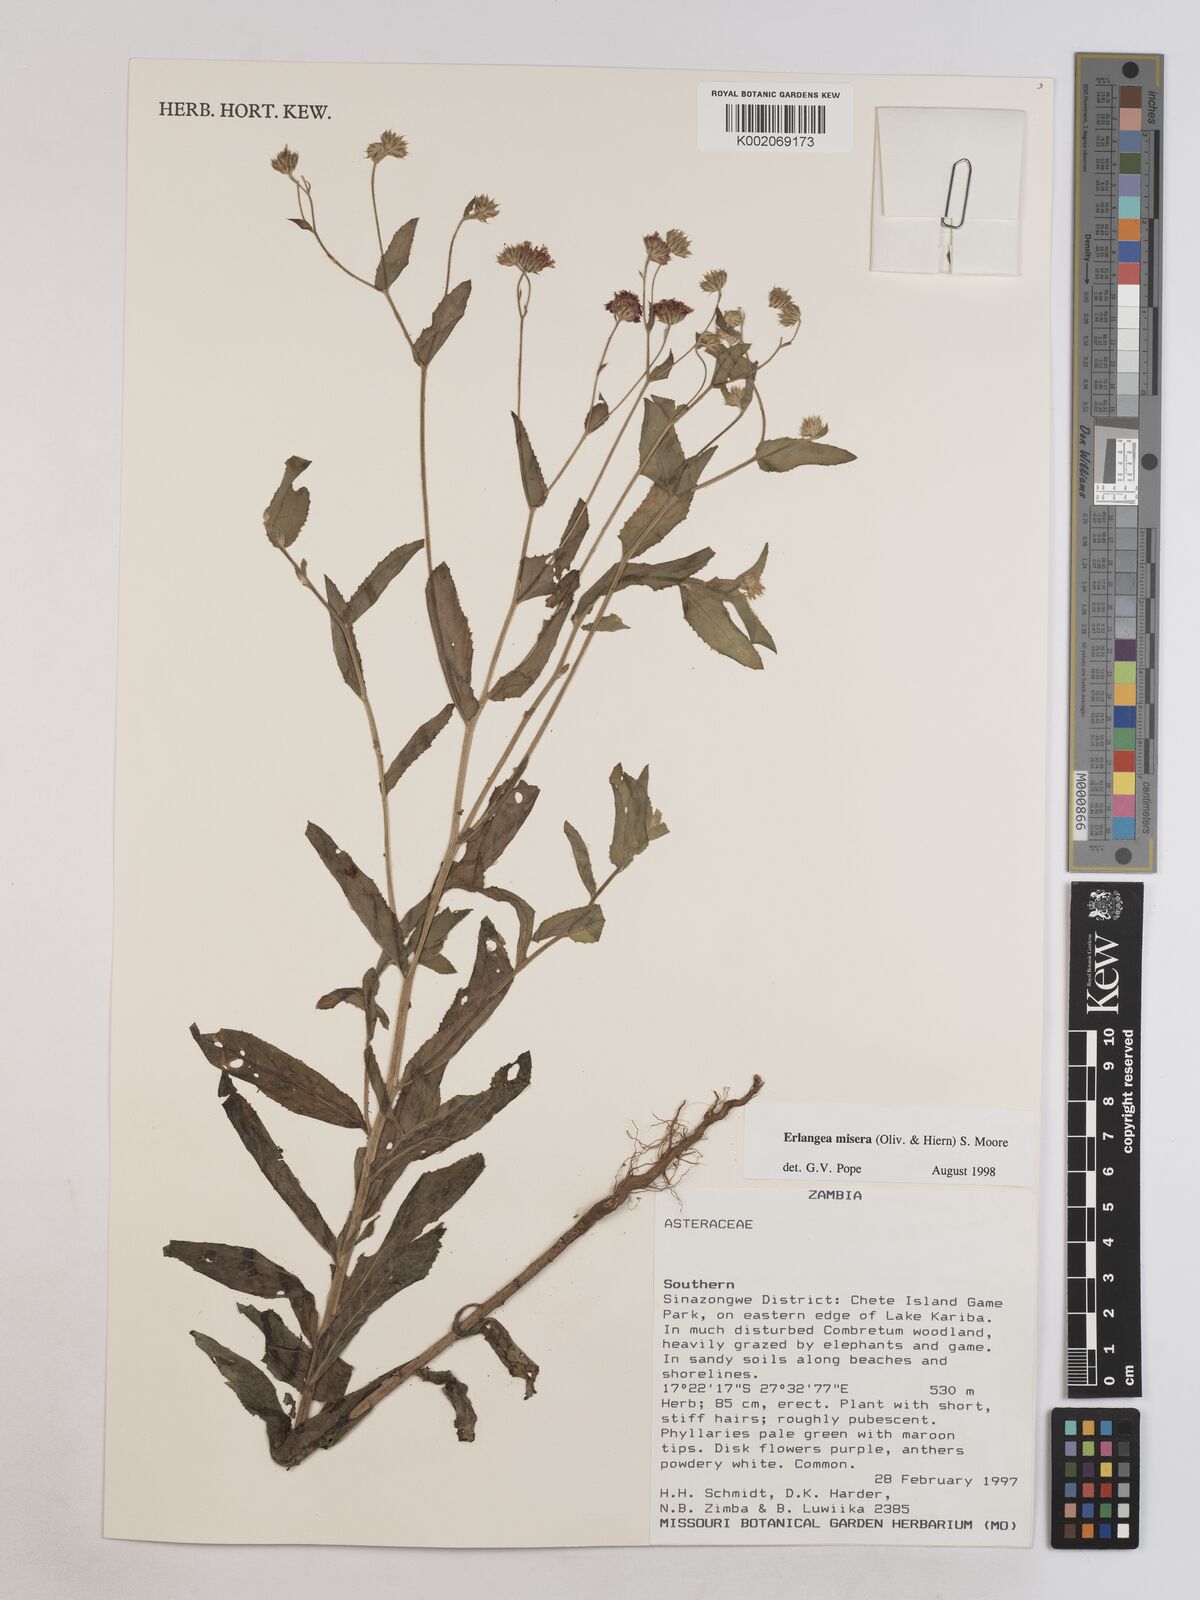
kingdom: Plantae
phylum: Tracheophyta
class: Magnoliopsida
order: Asterales
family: Asteraceae
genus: Erlangea
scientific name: Erlangea misera
